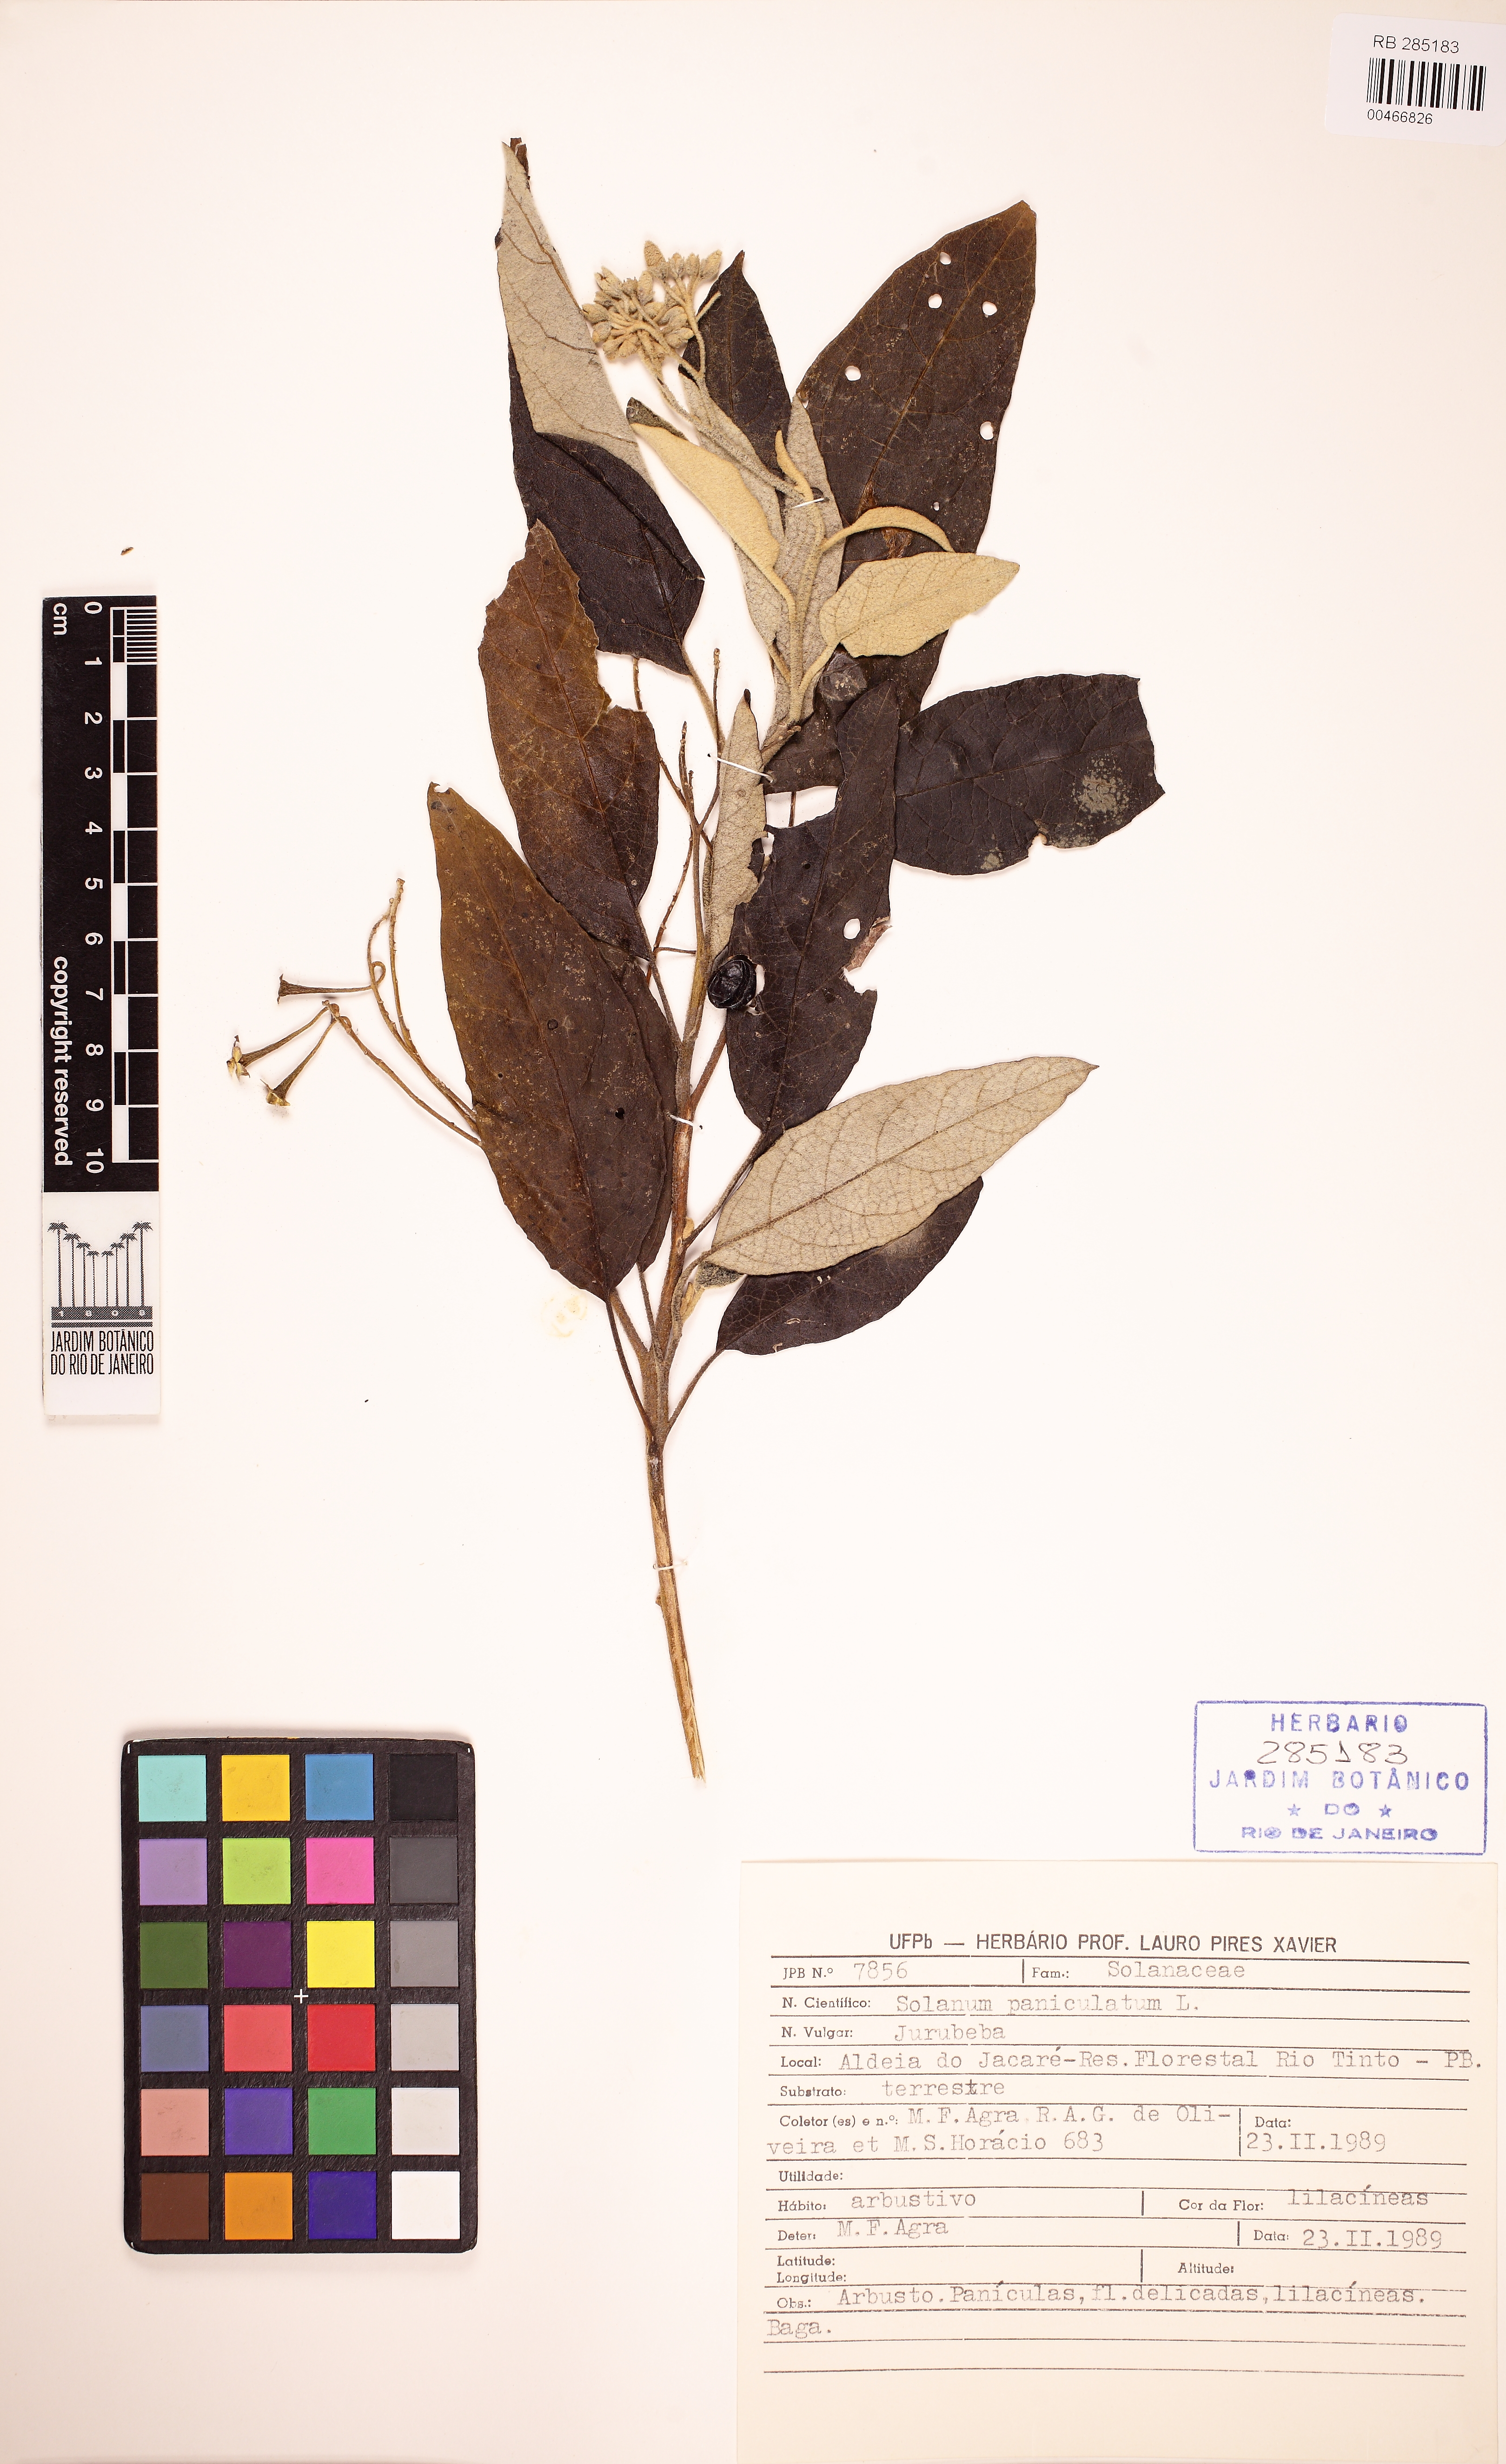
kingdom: Plantae
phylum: Tracheophyta
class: Magnoliopsida
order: Solanales
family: Solanaceae
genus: Solanum
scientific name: Solanum paniculatum
